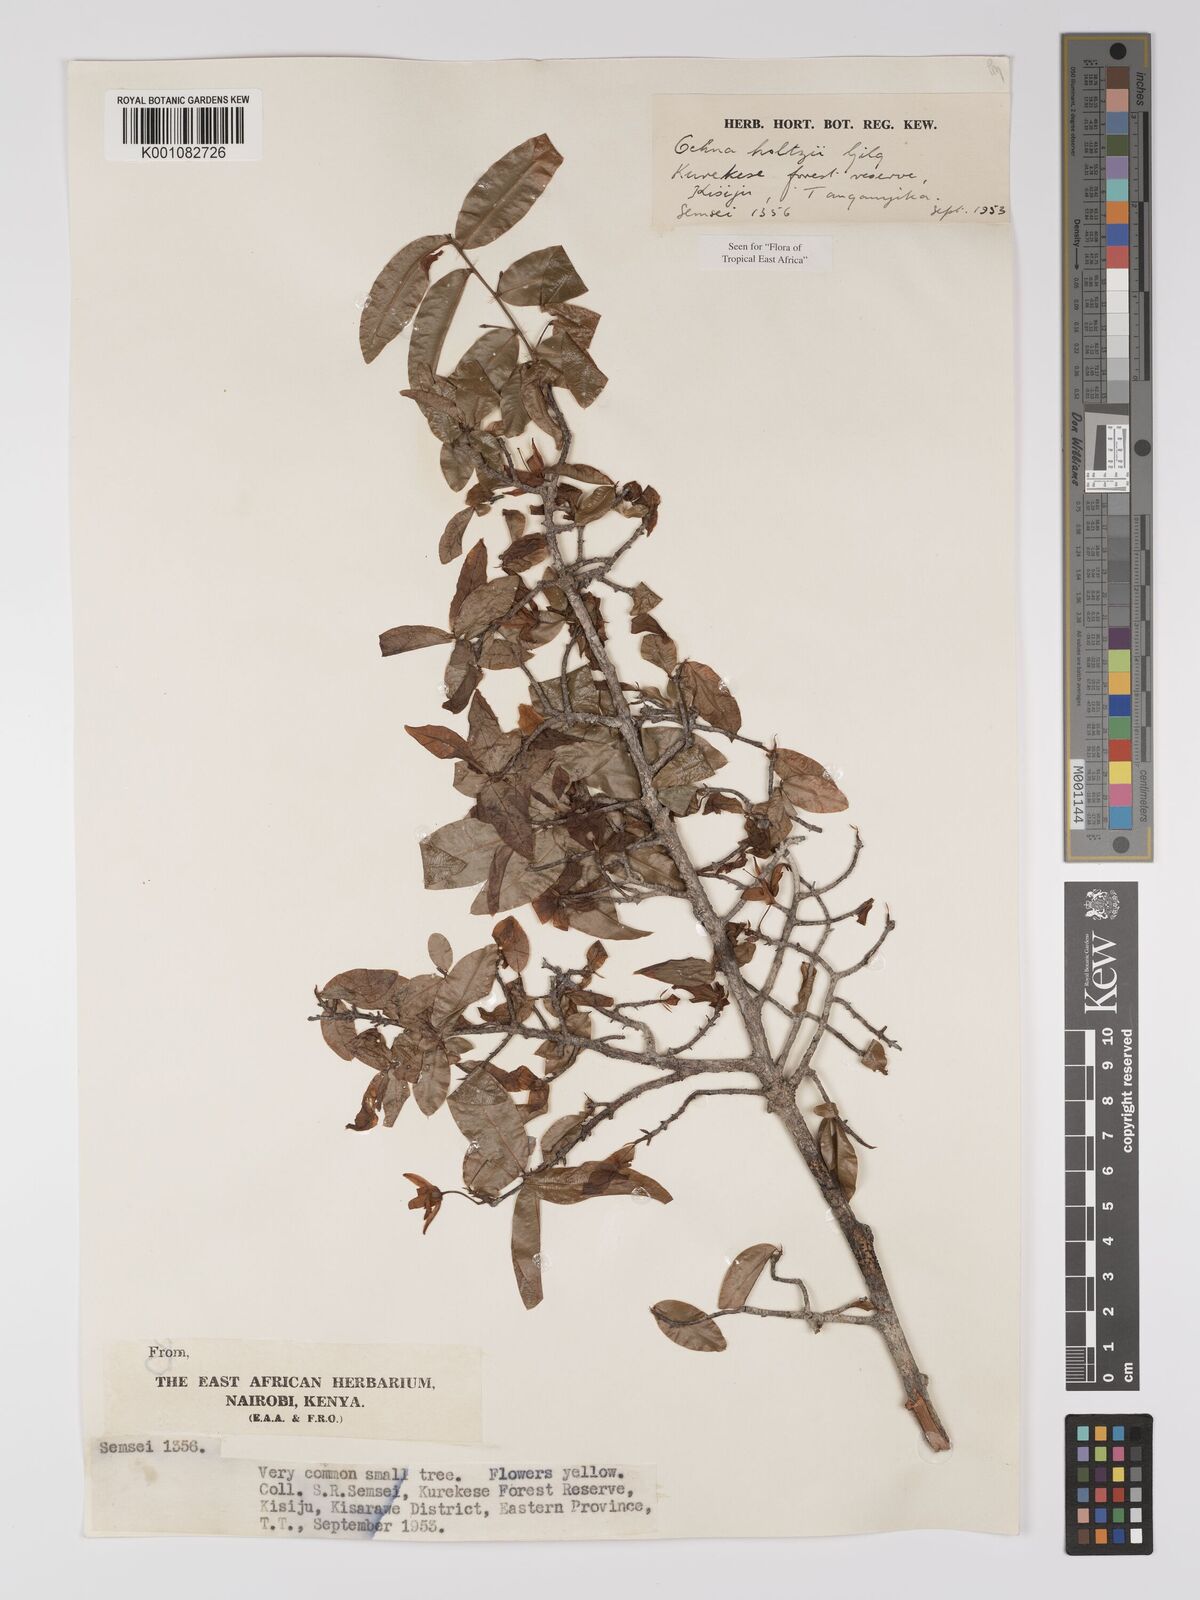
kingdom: Plantae
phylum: Tracheophyta
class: Magnoliopsida
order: Malpighiales
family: Ochnaceae
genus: Ochna
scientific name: Ochna holtzii
